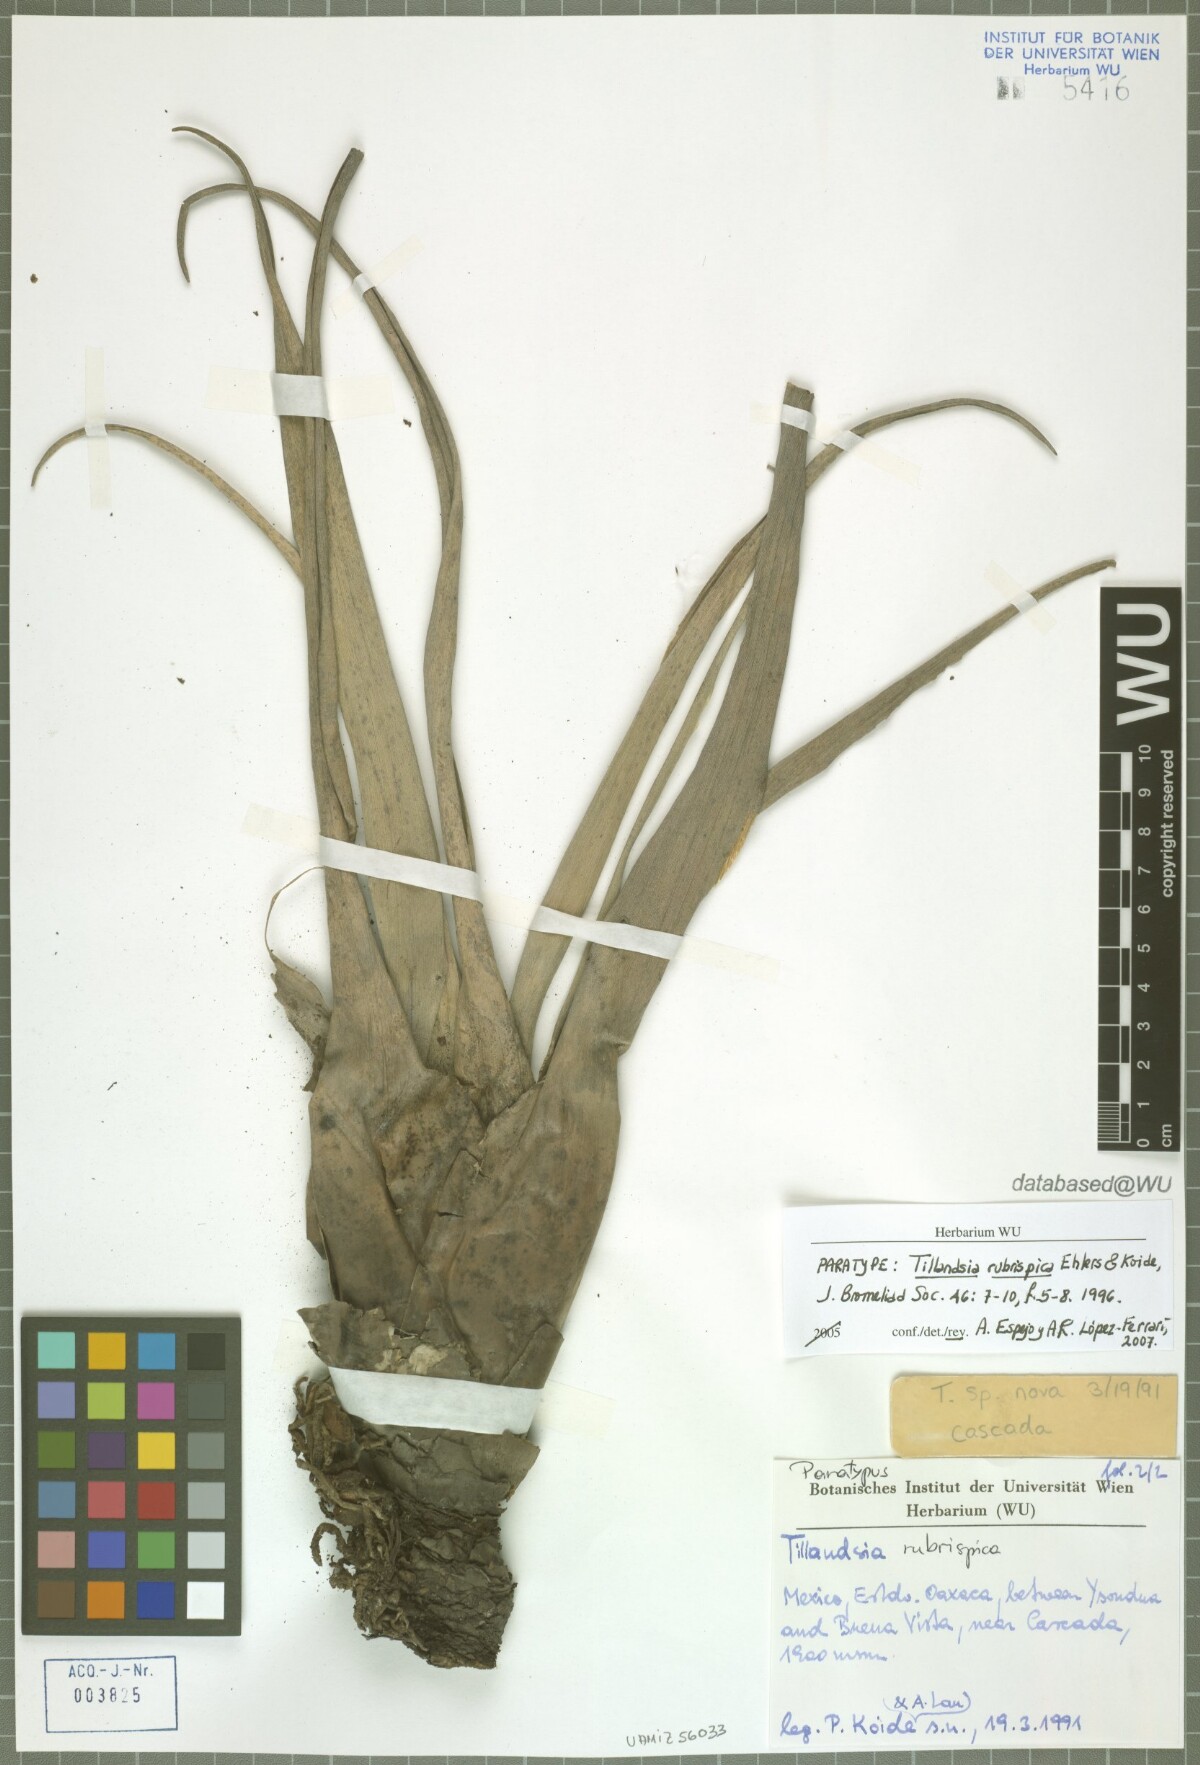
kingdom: Plantae
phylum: Tracheophyta
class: Liliopsida
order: Poales
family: Bromeliaceae
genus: Tillandsia
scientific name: Tillandsia rubrispica
